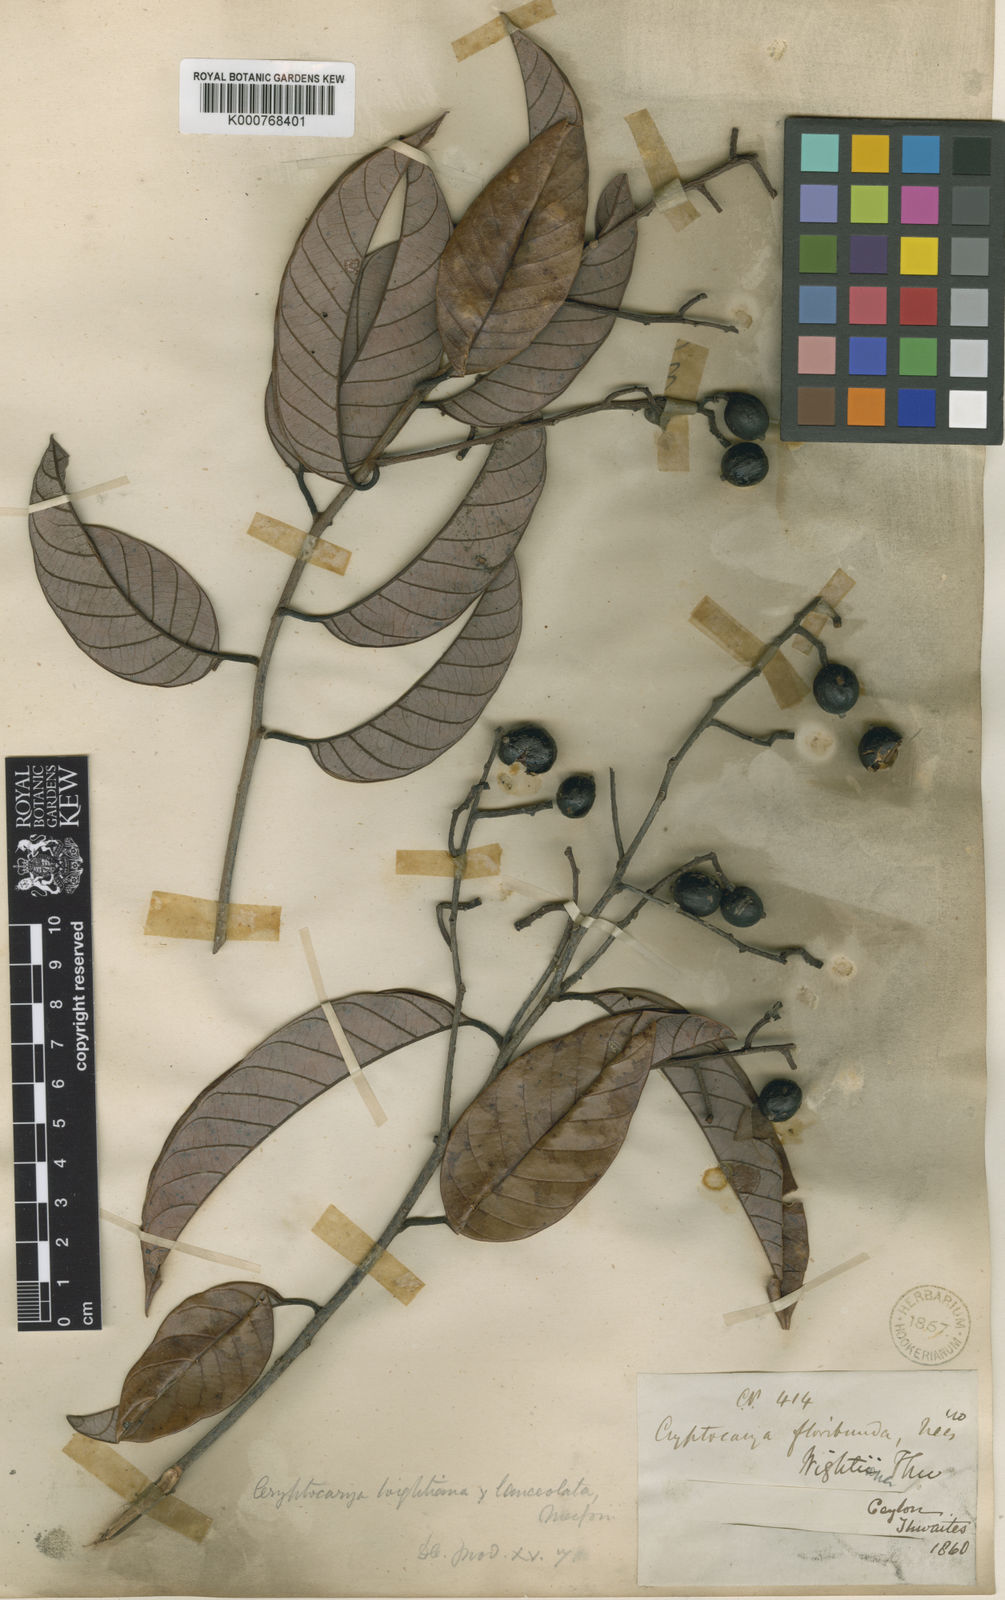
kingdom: Plantae
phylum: Tracheophyta
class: Magnoliopsida
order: Laurales
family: Lauraceae
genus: Cryptocarya
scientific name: Cryptocarya wightiana
